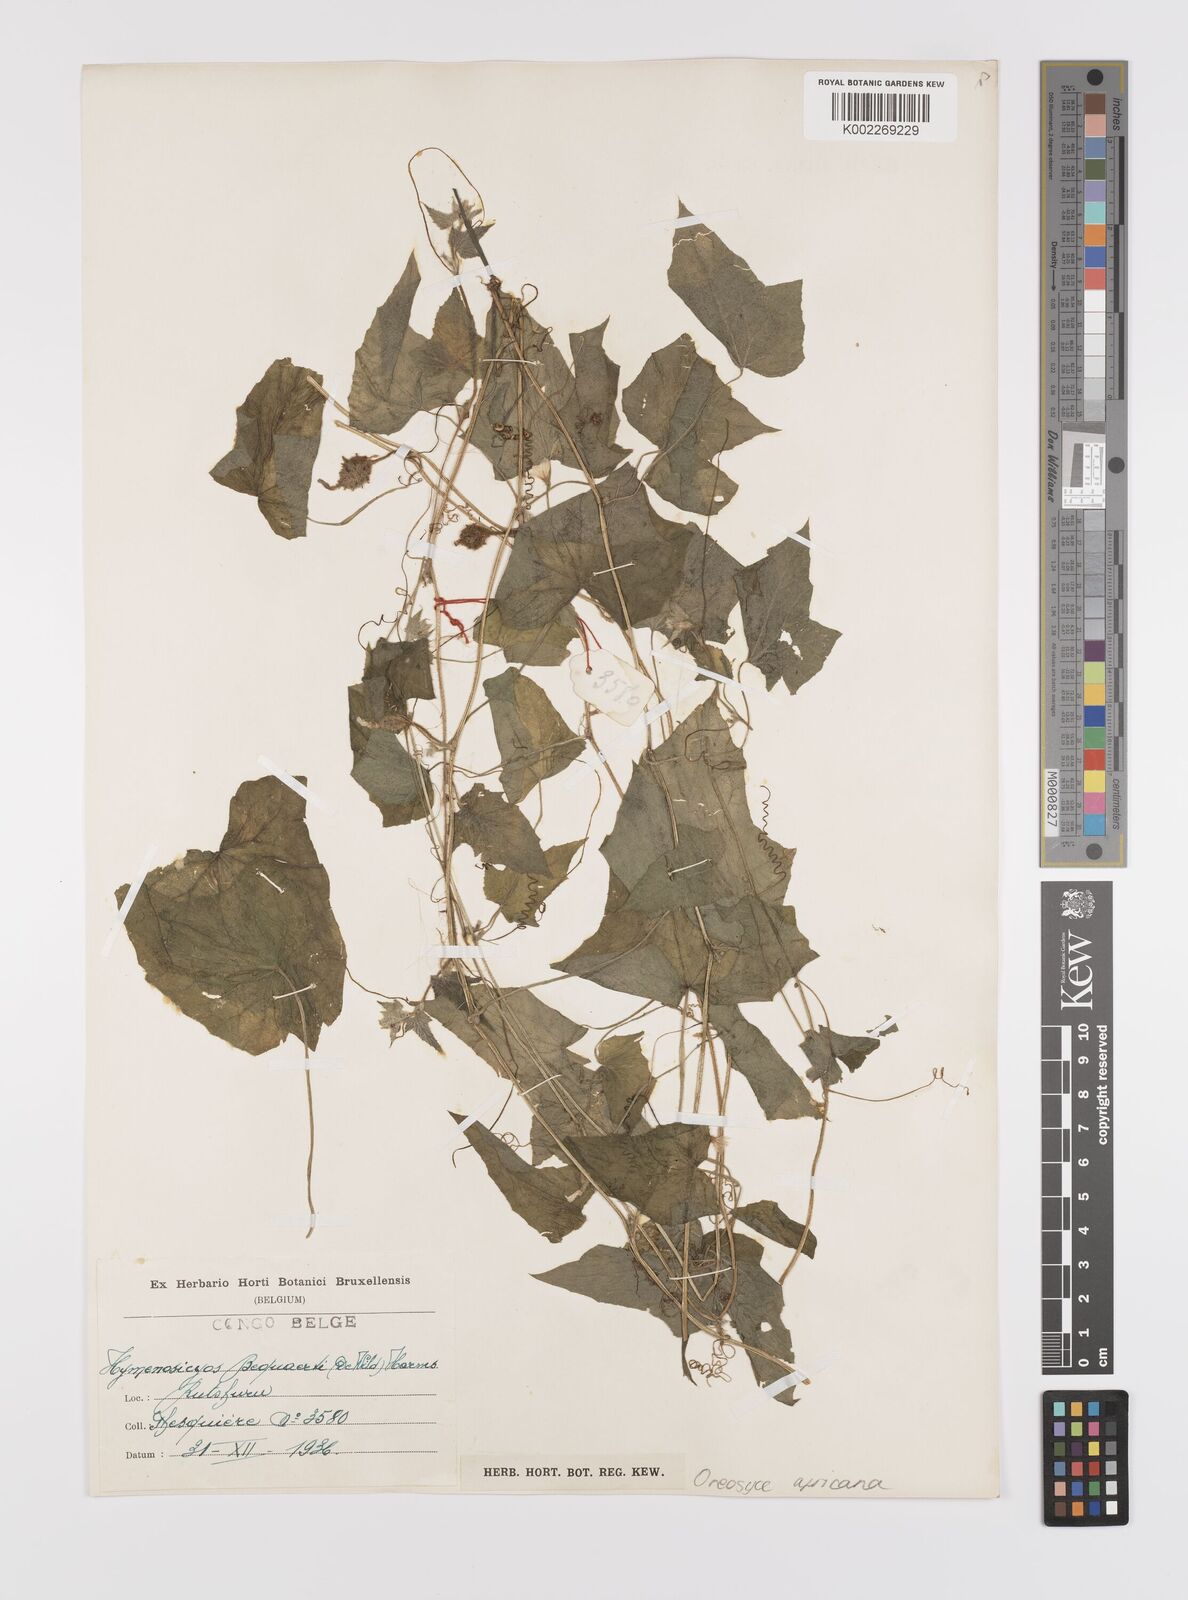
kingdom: Plantae
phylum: Tracheophyta
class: Magnoliopsida
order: Cucurbitales
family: Cucurbitaceae
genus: Cucumis
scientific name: Cucumis oreosyce
